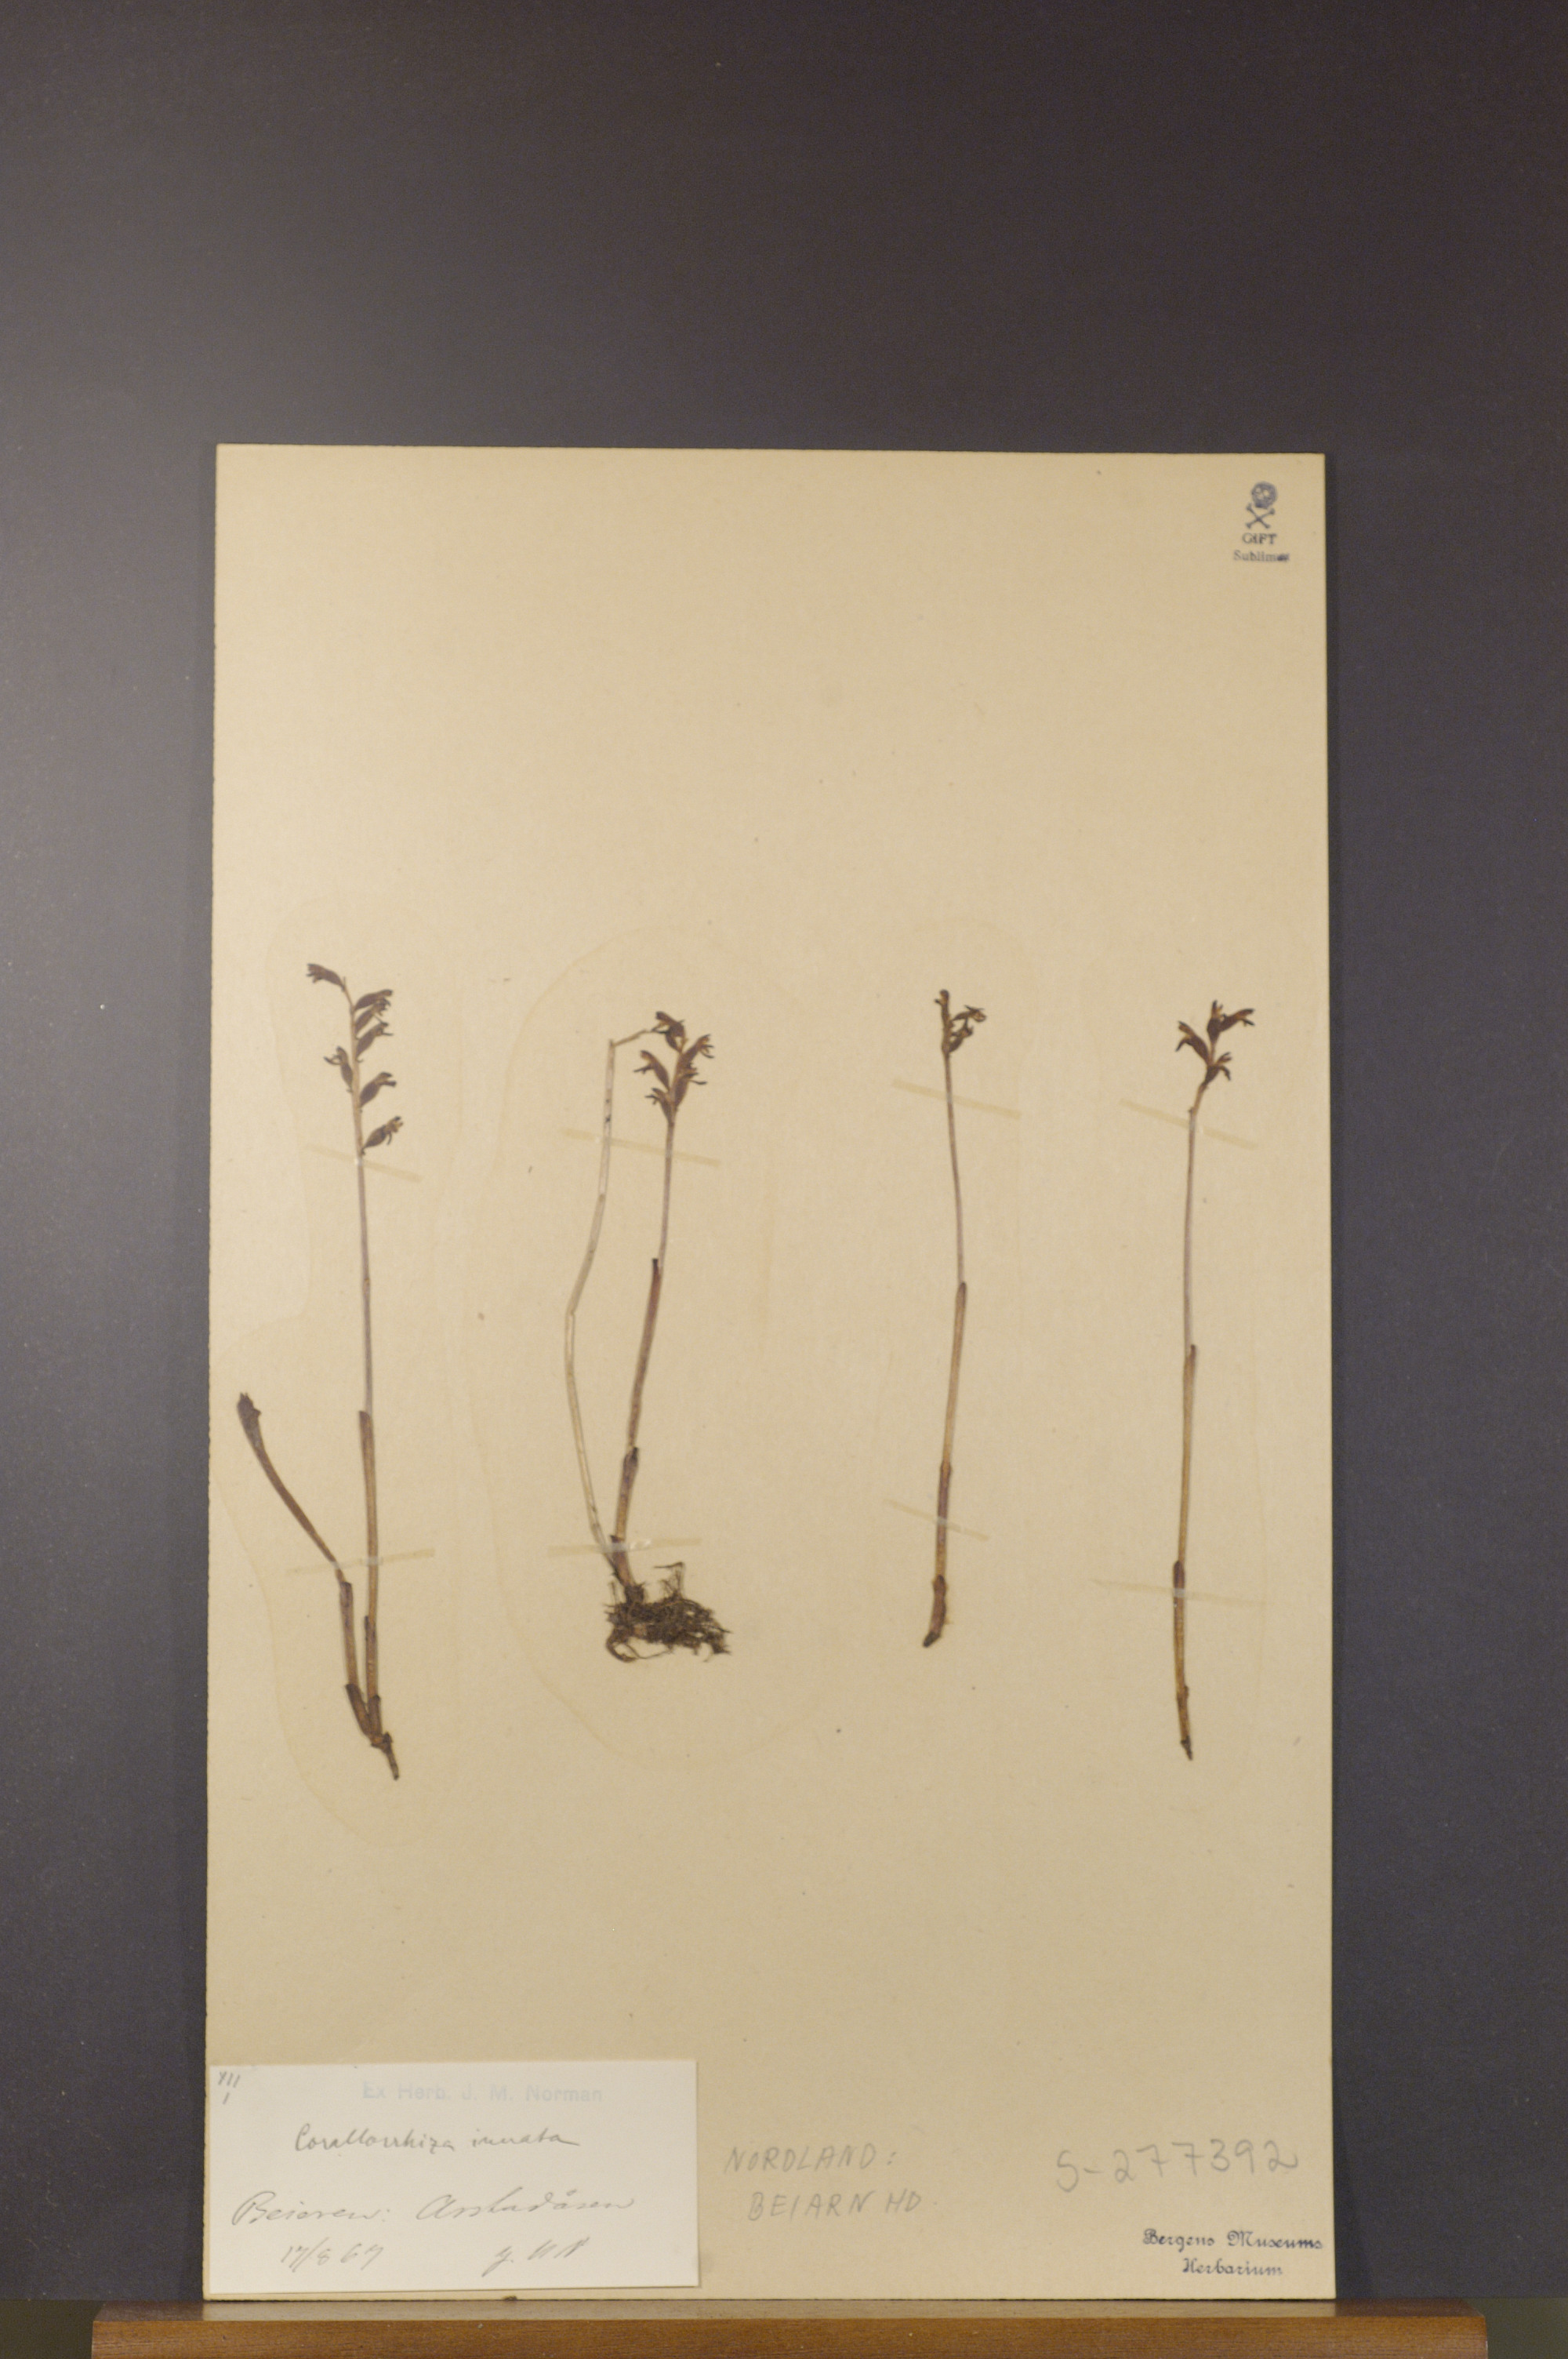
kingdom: Plantae
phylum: Tracheophyta
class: Liliopsida
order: Asparagales
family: Orchidaceae
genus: Corallorhiza
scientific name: Corallorhiza trifida
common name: Yellow coralroot
